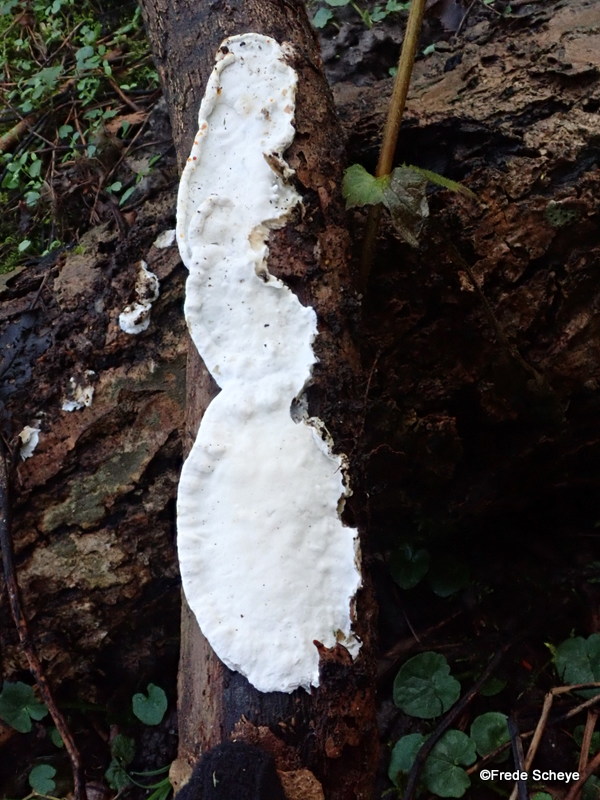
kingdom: Fungi
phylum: Basidiomycota
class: Agaricomycetes
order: Polyporales
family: Irpicaceae
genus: Byssomerulius
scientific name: Byssomerulius corium
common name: læder-åresvamp
